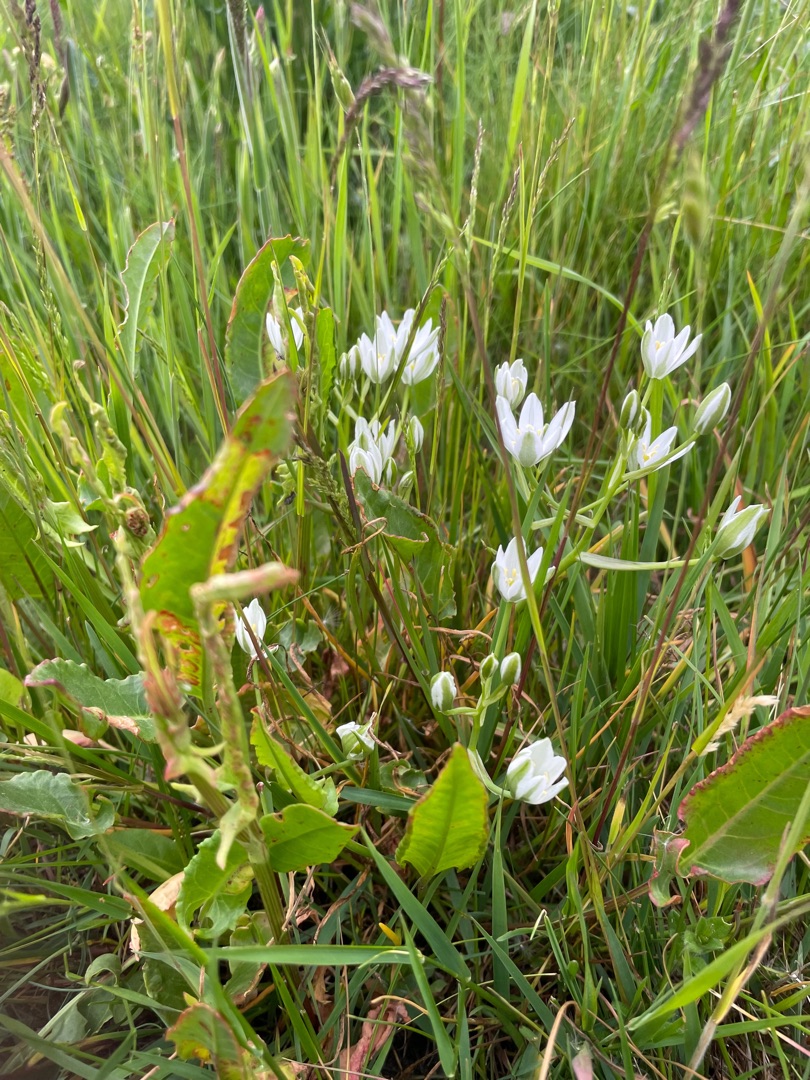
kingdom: Plantae
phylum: Tracheophyta
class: Liliopsida
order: Asparagales
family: Asparagaceae
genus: Ornithogalum
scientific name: Ornithogalum umbellatum
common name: Kost-fuglemælk
